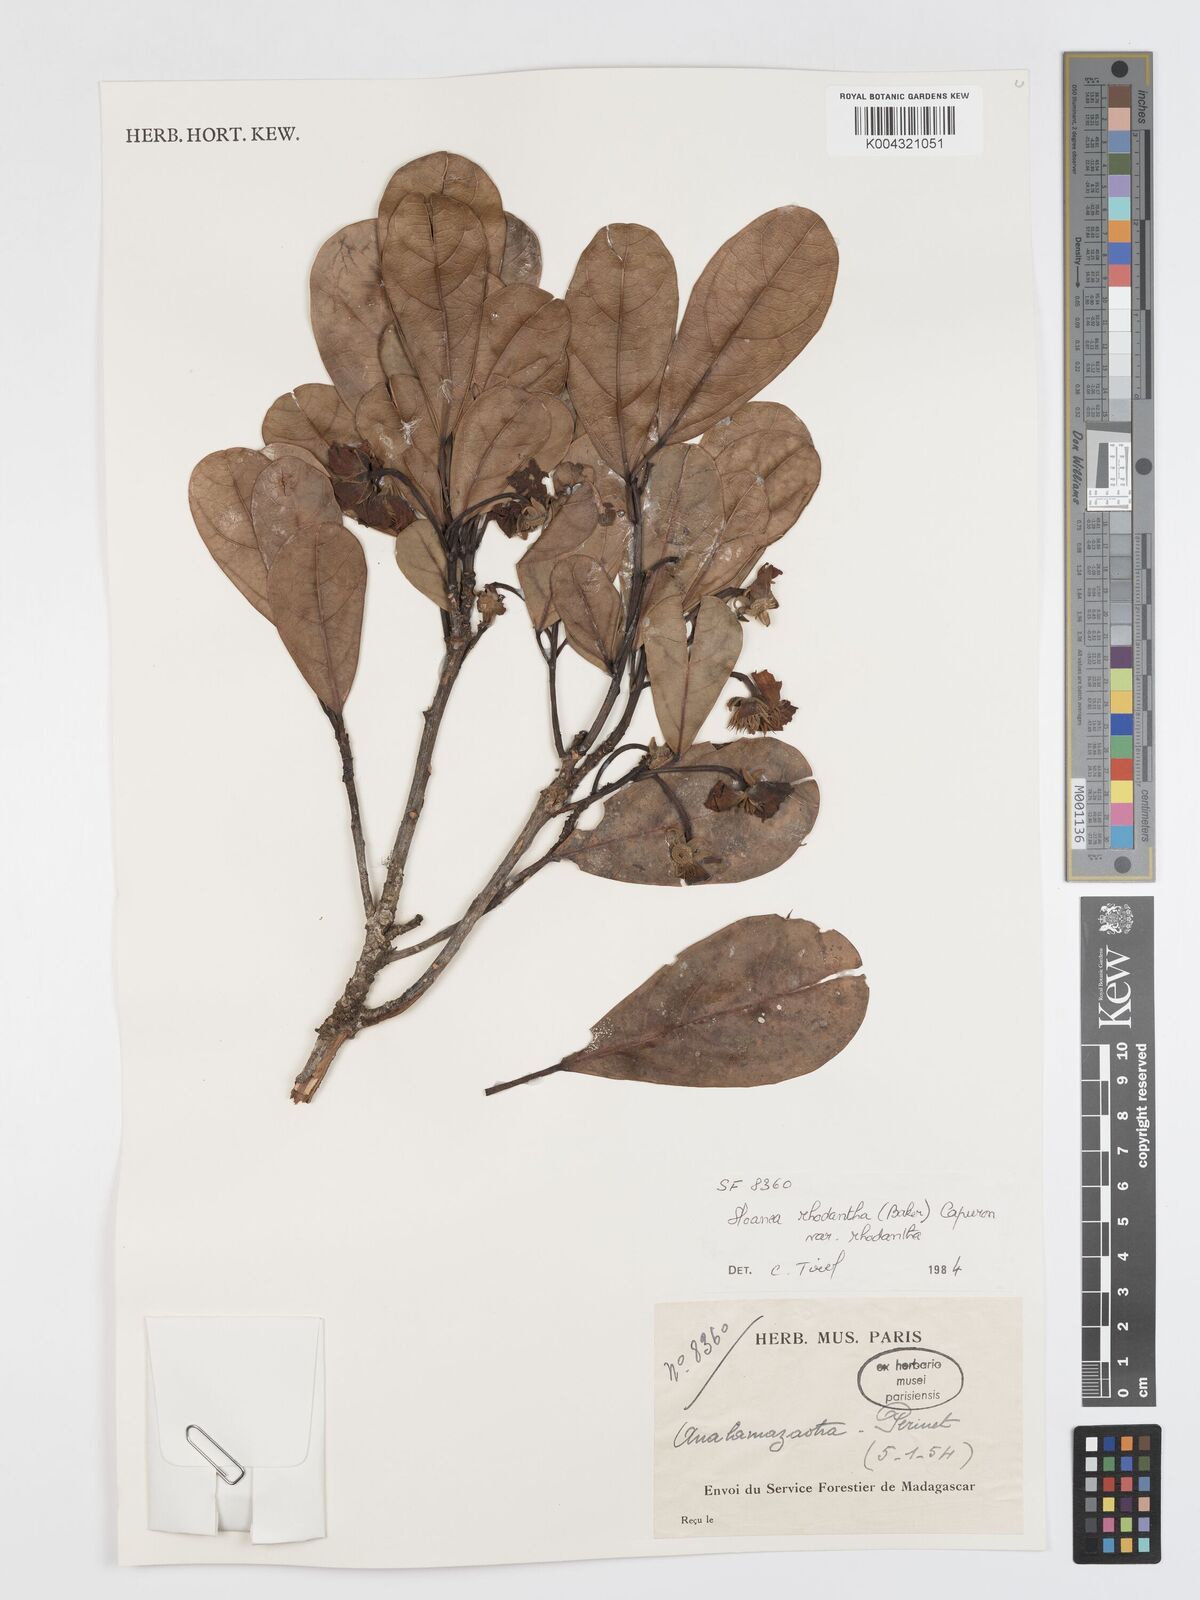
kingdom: Plantae
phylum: Tracheophyta
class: Magnoliopsida
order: Oxalidales
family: Elaeocarpaceae
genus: Sloanea
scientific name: Sloanea rhodantha
